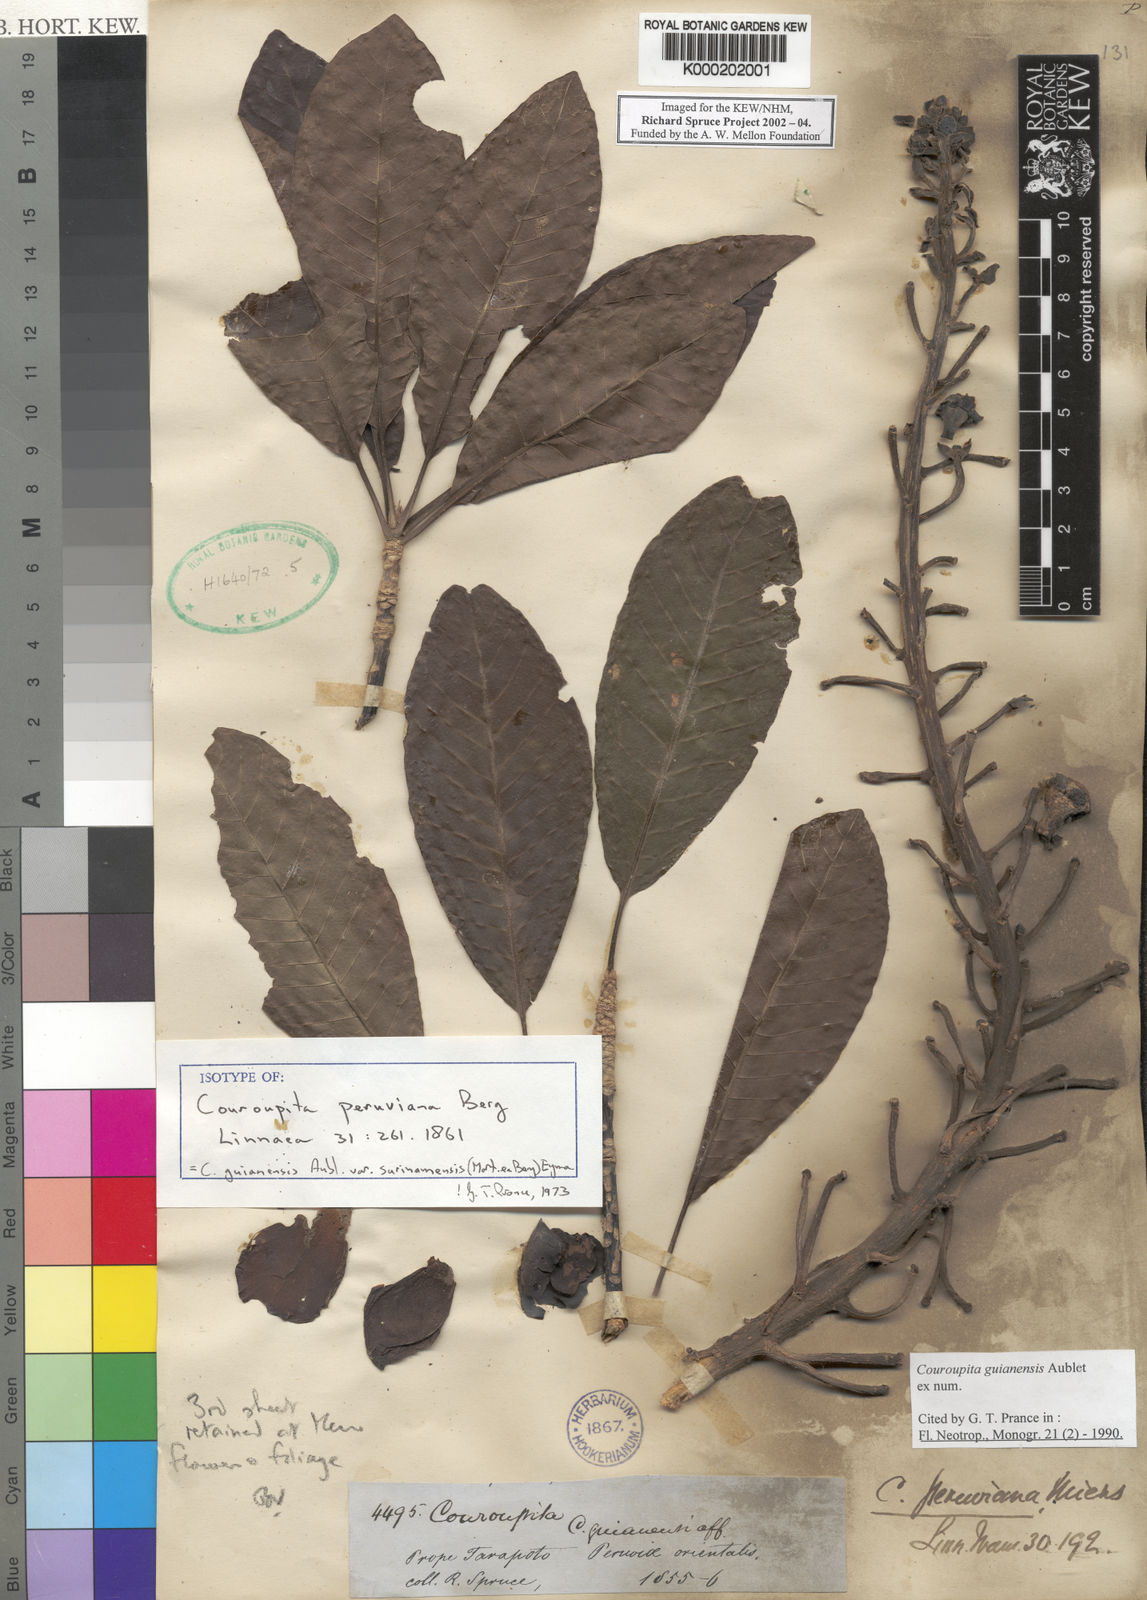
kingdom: Plantae
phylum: Tracheophyta
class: Magnoliopsida
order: Ericales
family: Lecythidaceae
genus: Couroupita
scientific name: Couroupita guianensis
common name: Cannonball tree
